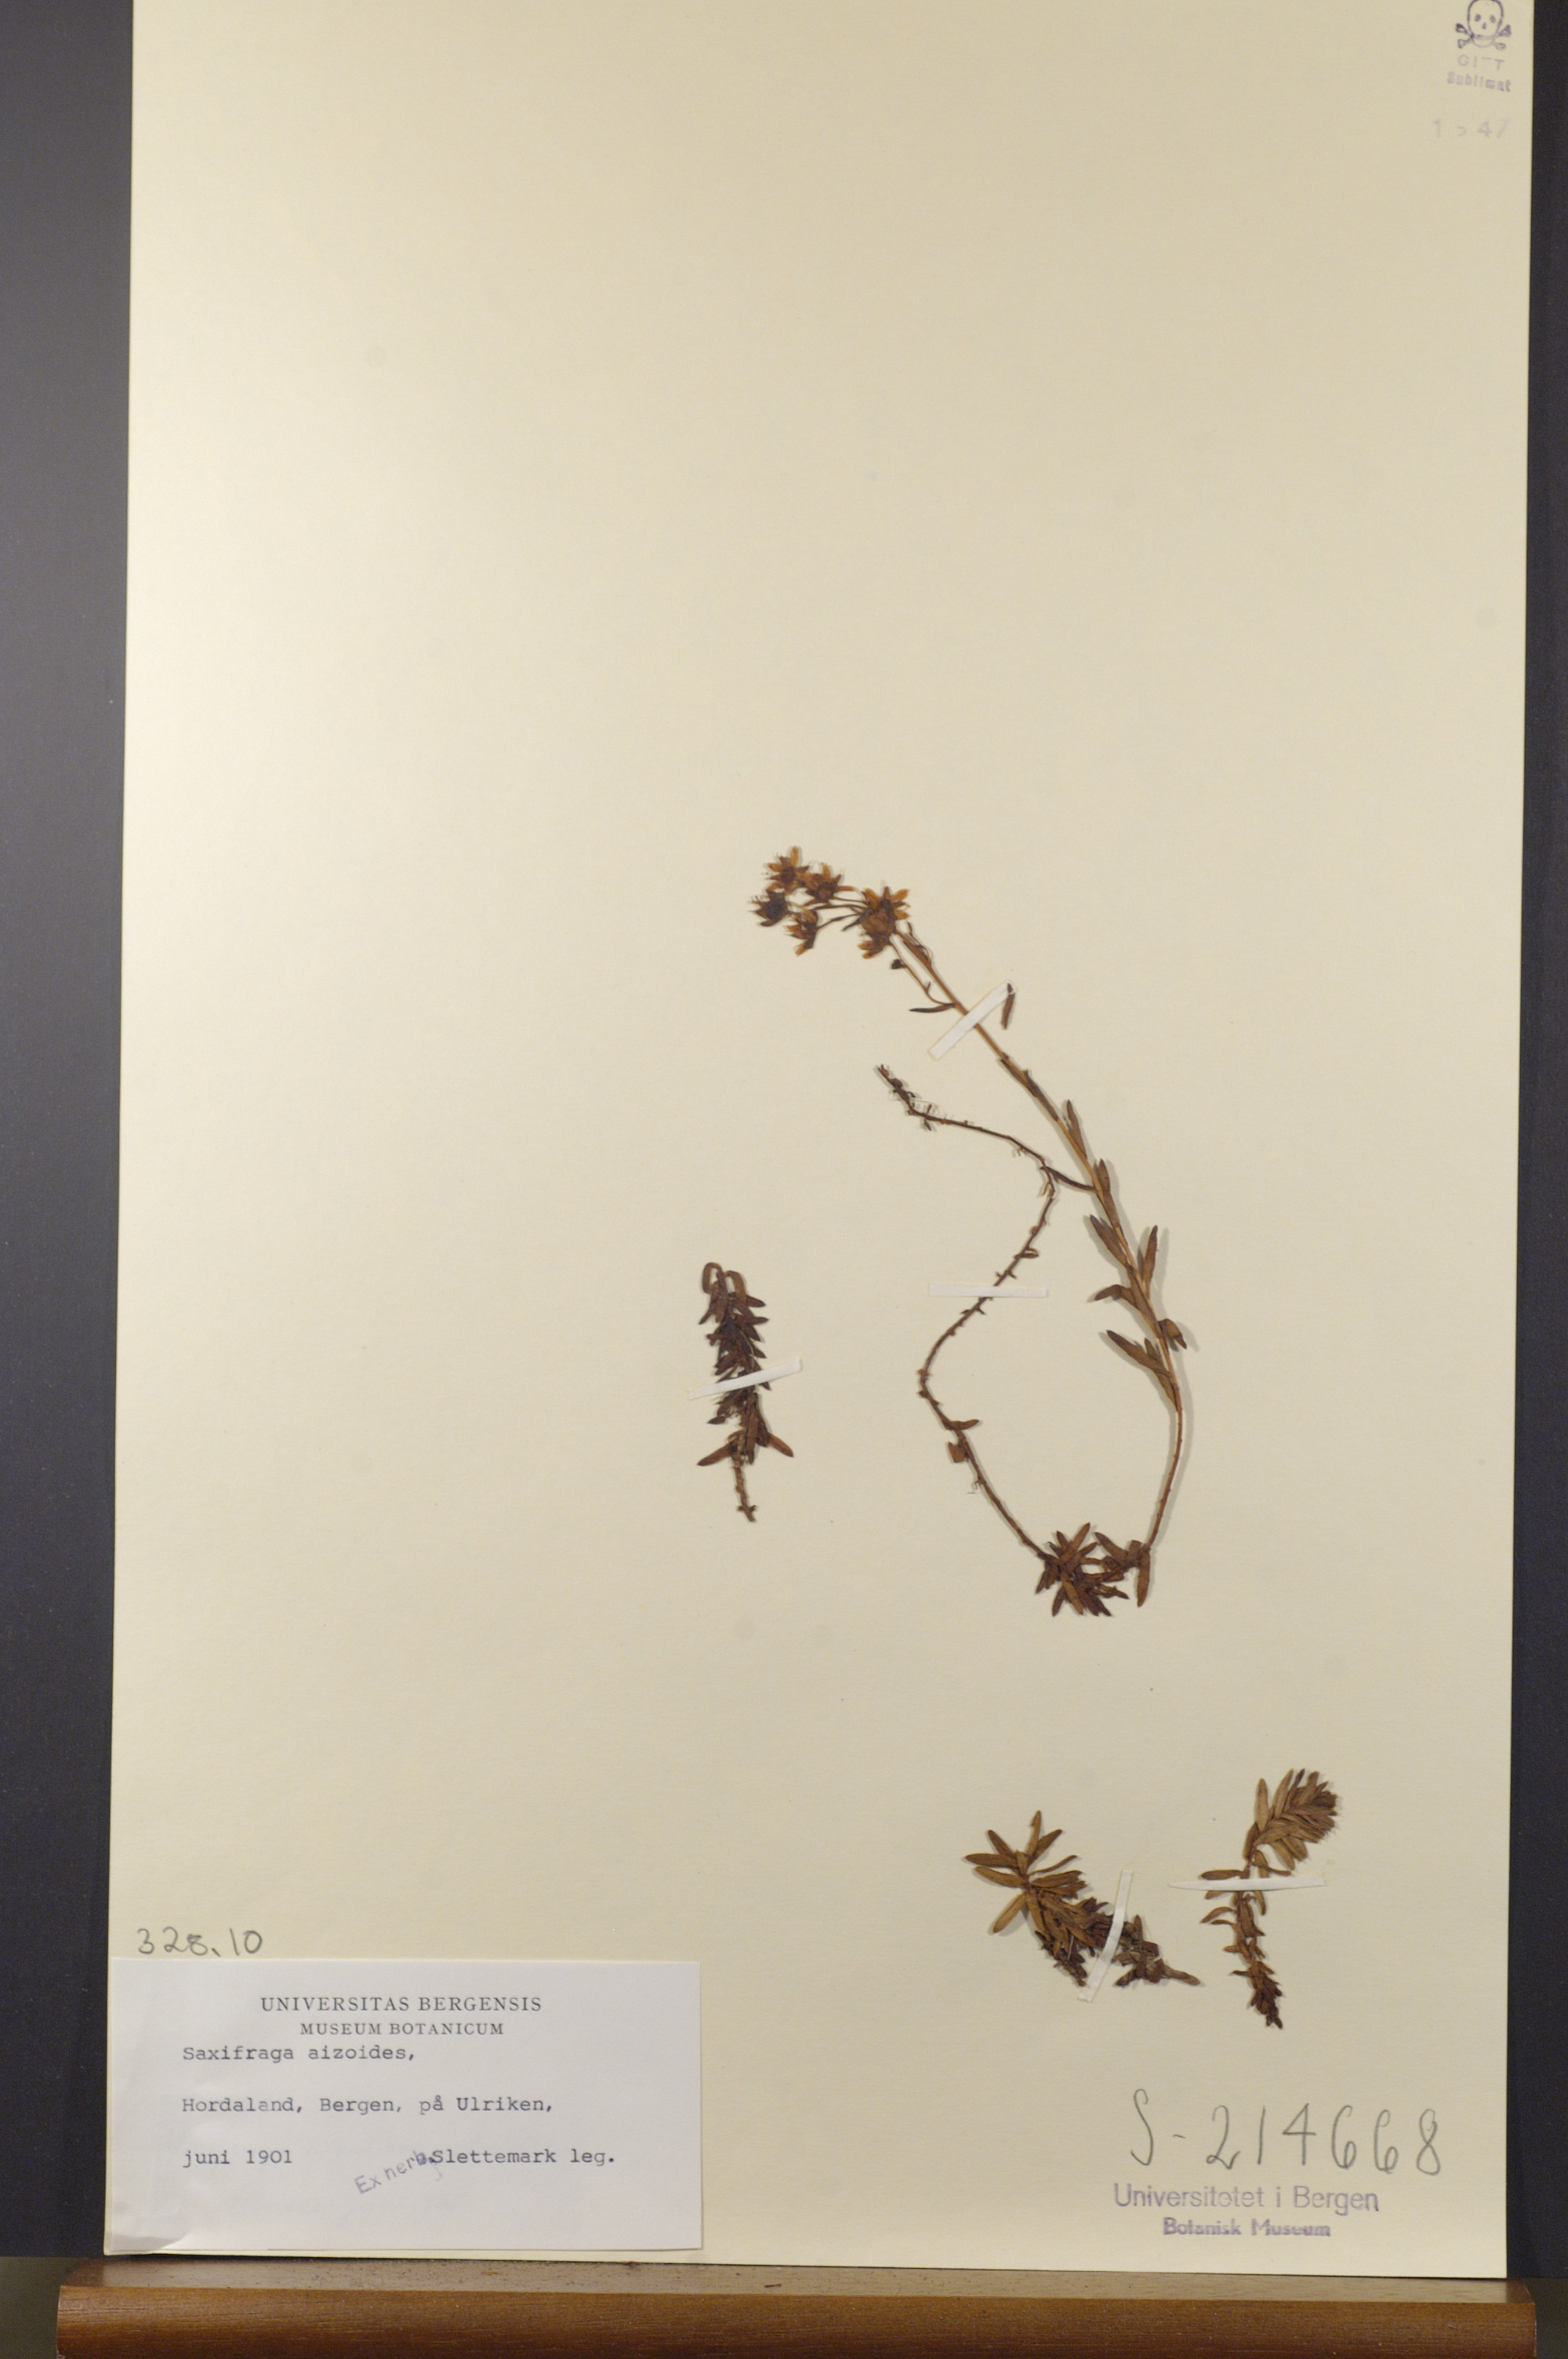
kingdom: Plantae
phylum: Tracheophyta
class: Magnoliopsida
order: Saxifragales
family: Saxifragaceae
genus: Saxifraga
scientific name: Saxifraga aizoides
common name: Yellow mountain saxifrage
